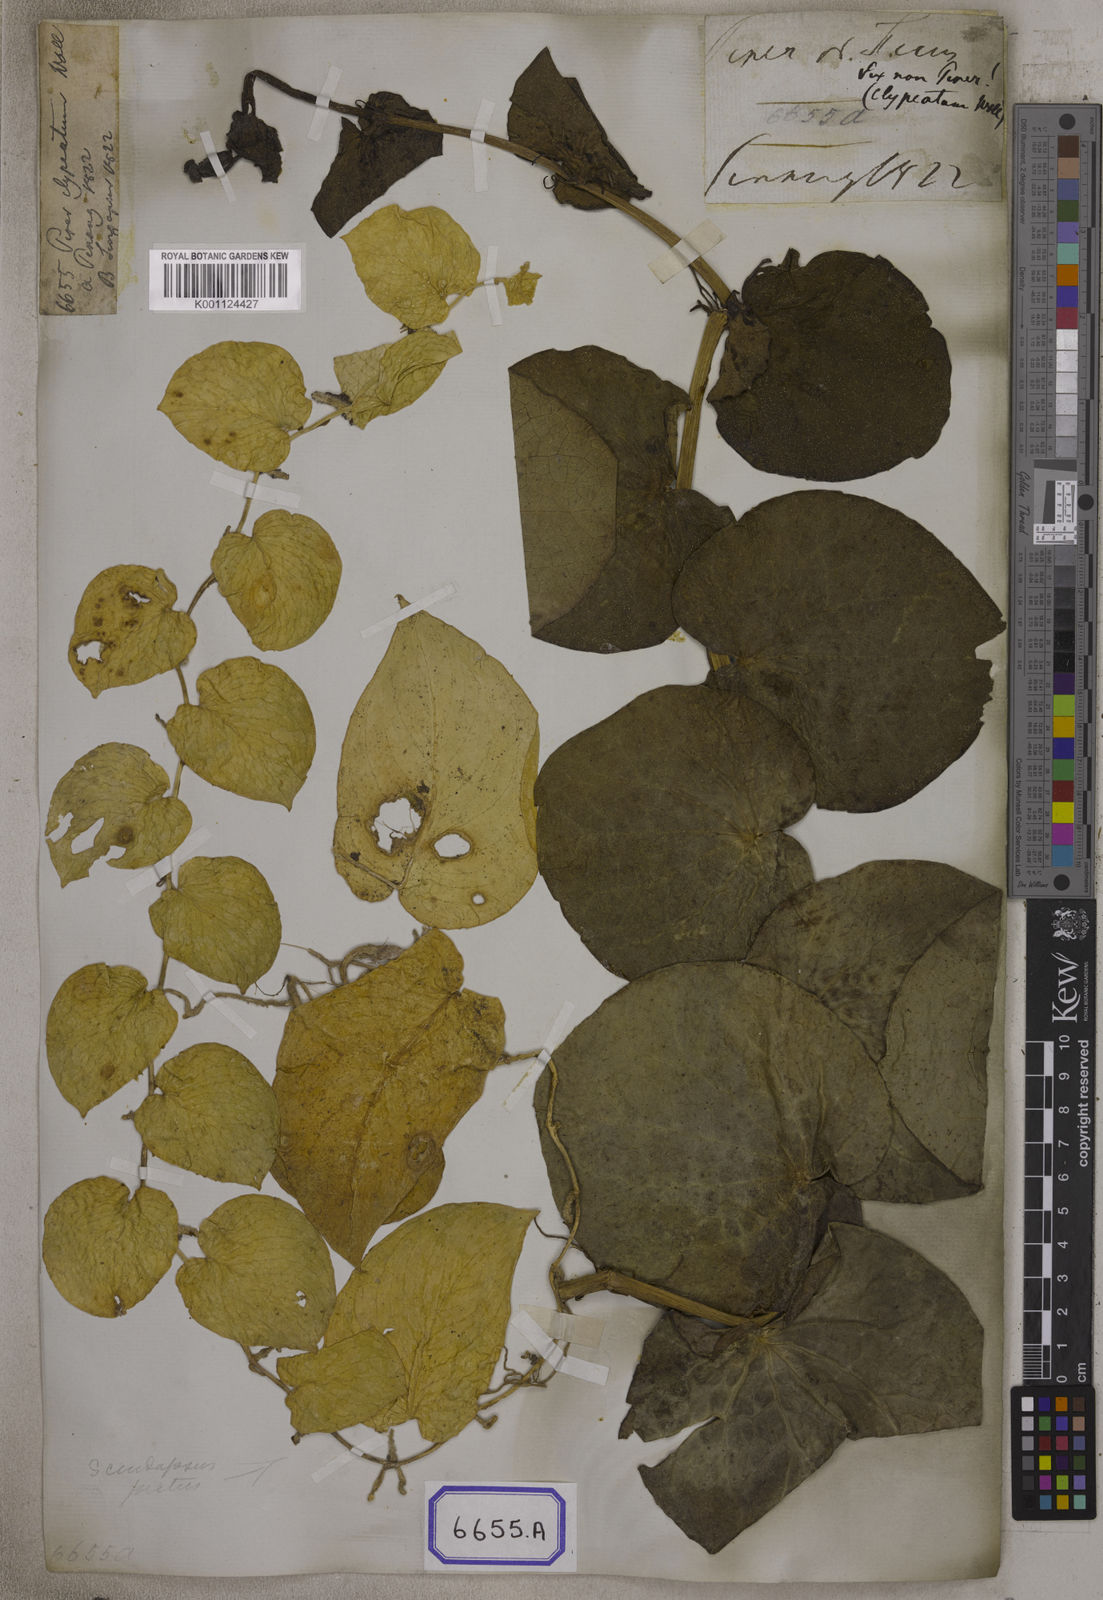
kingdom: Plantae
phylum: Tracheophyta
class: Magnoliopsida
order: Piperales
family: Piperaceae
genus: Piper
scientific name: Piper
